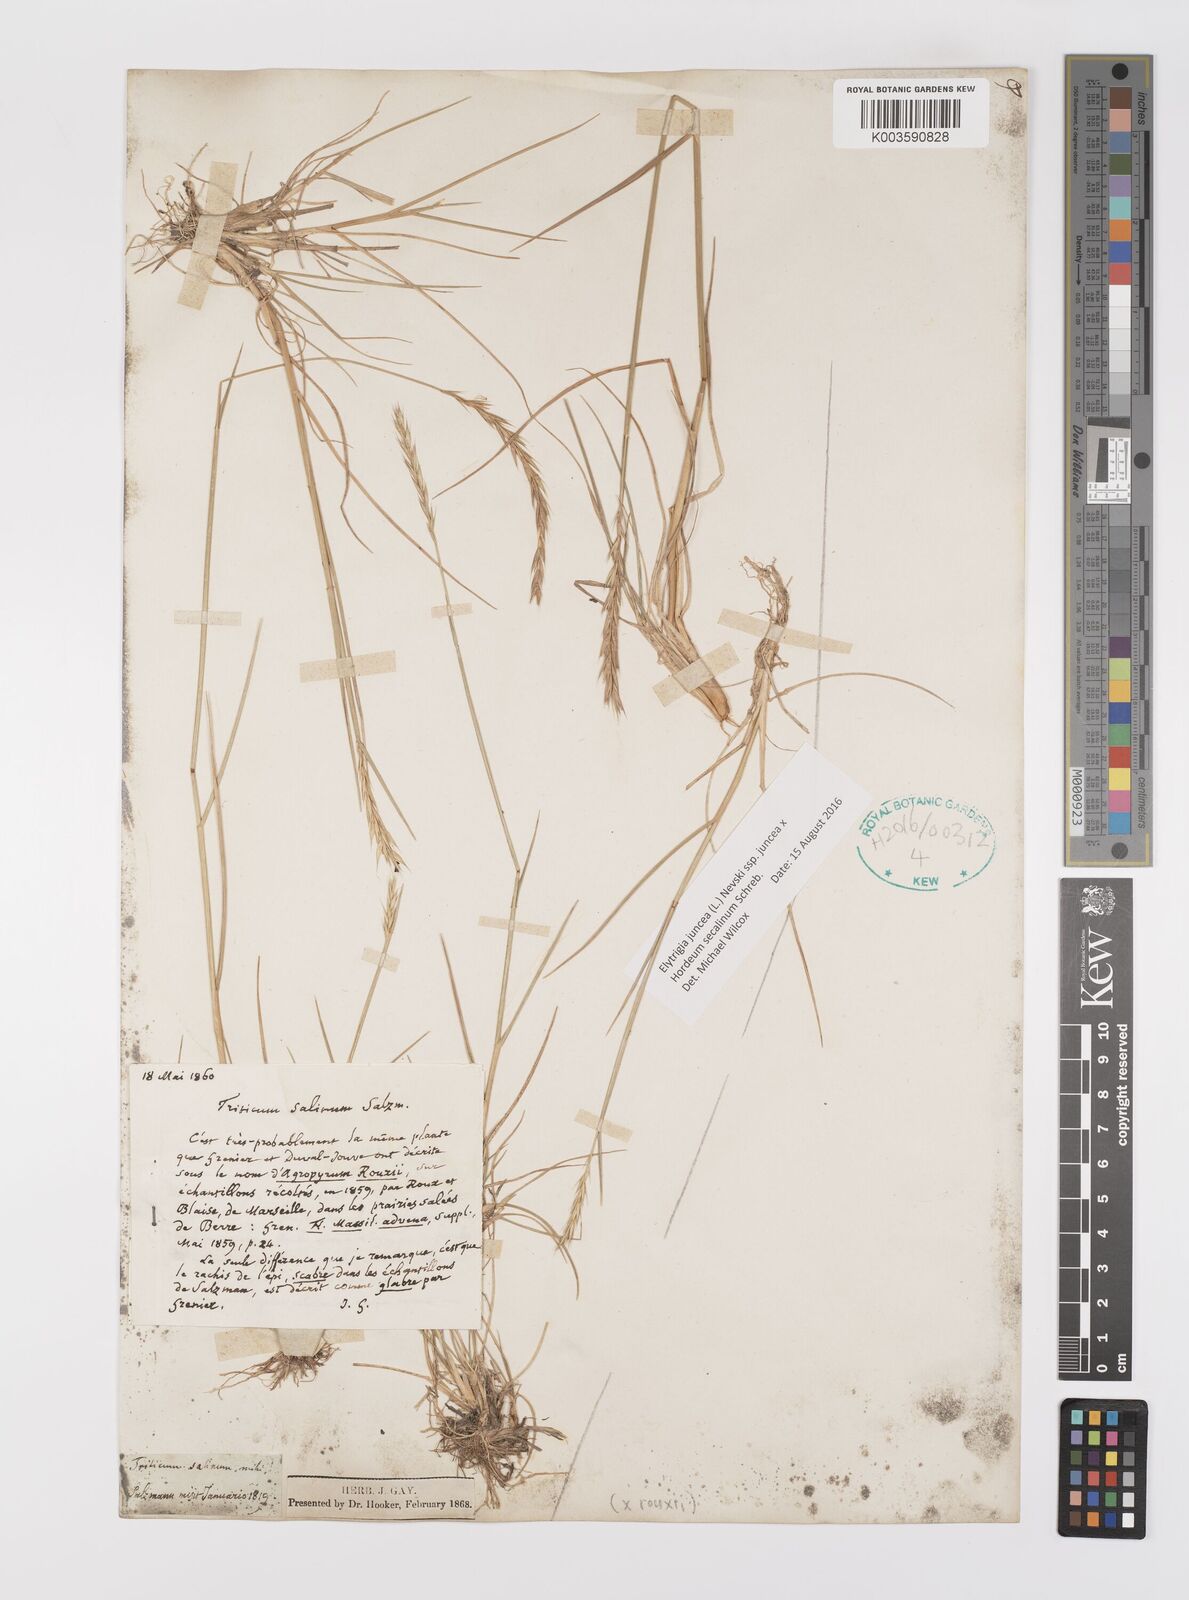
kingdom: Plantae
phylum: Tracheophyta
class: Liliopsida
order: Poales
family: Poaceae
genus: Elyhordeum
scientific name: Elyhordeum rouxii
